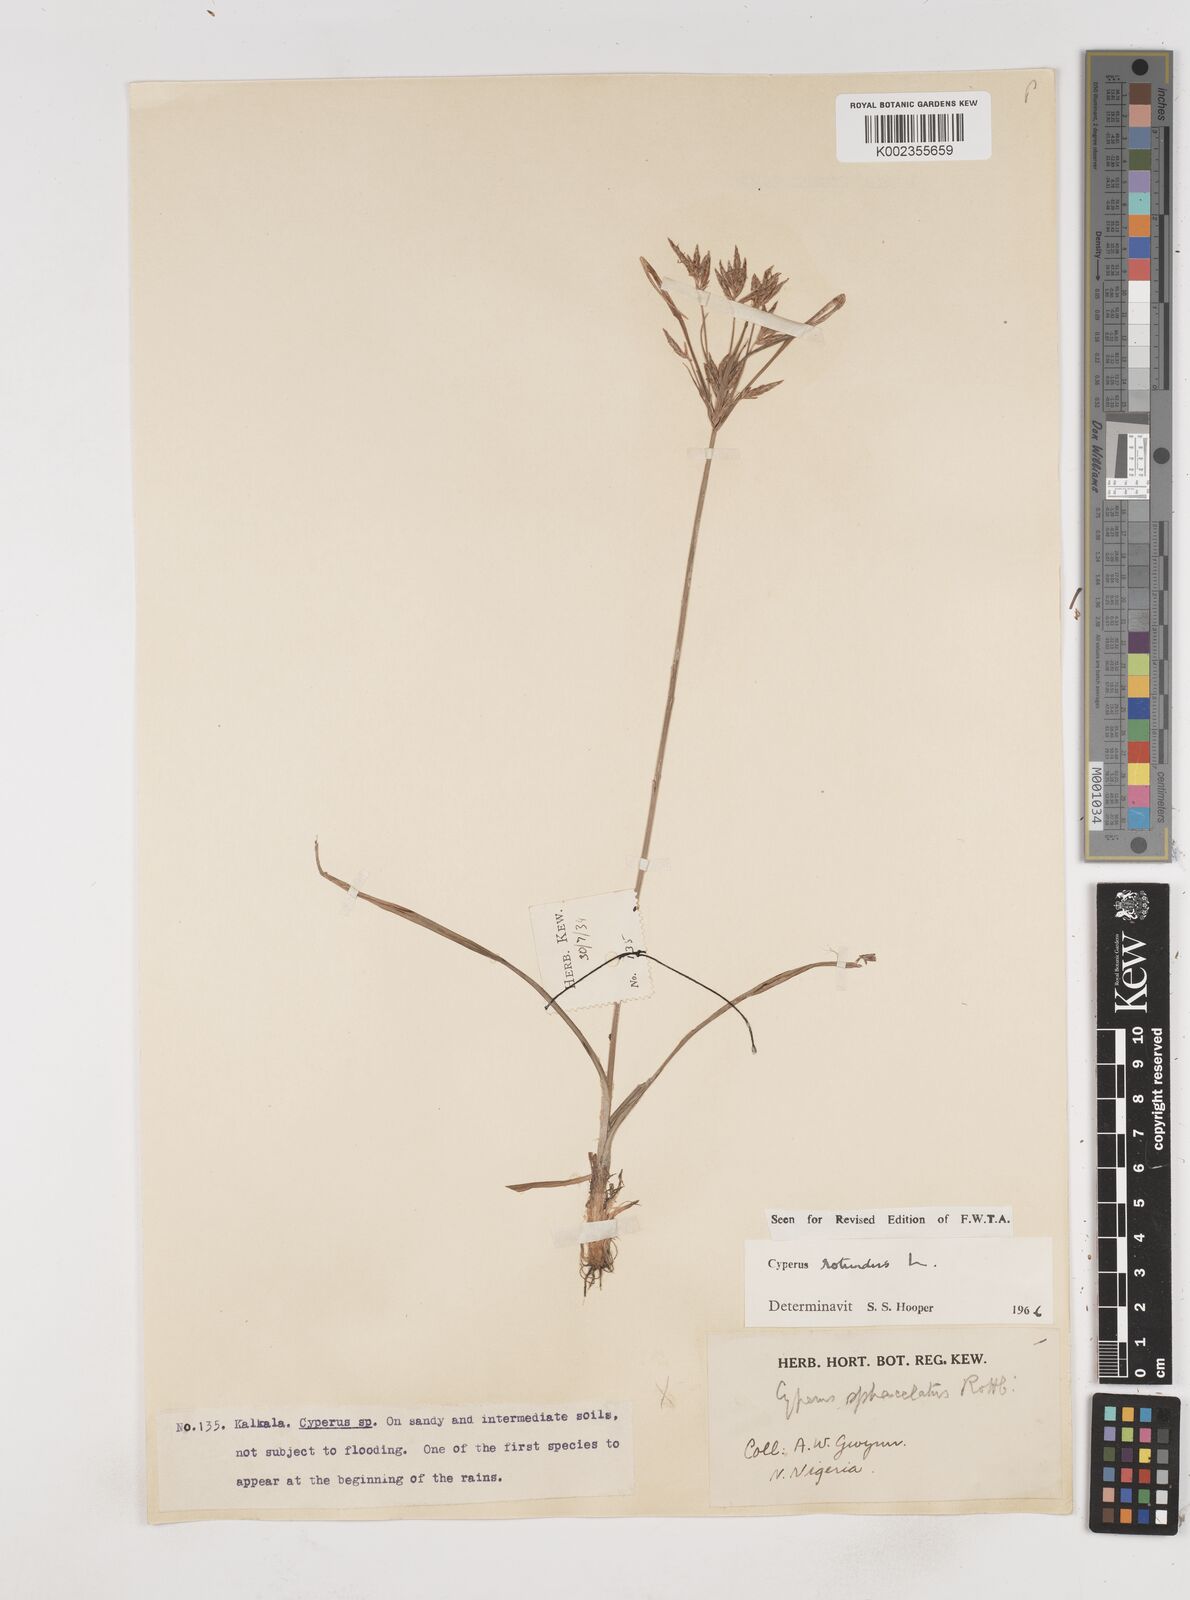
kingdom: Plantae
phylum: Tracheophyta
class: Liliopsida
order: Poales
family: Cyperaceae
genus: Cyperus
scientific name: Cyperus rotundus
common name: Nutgrass
